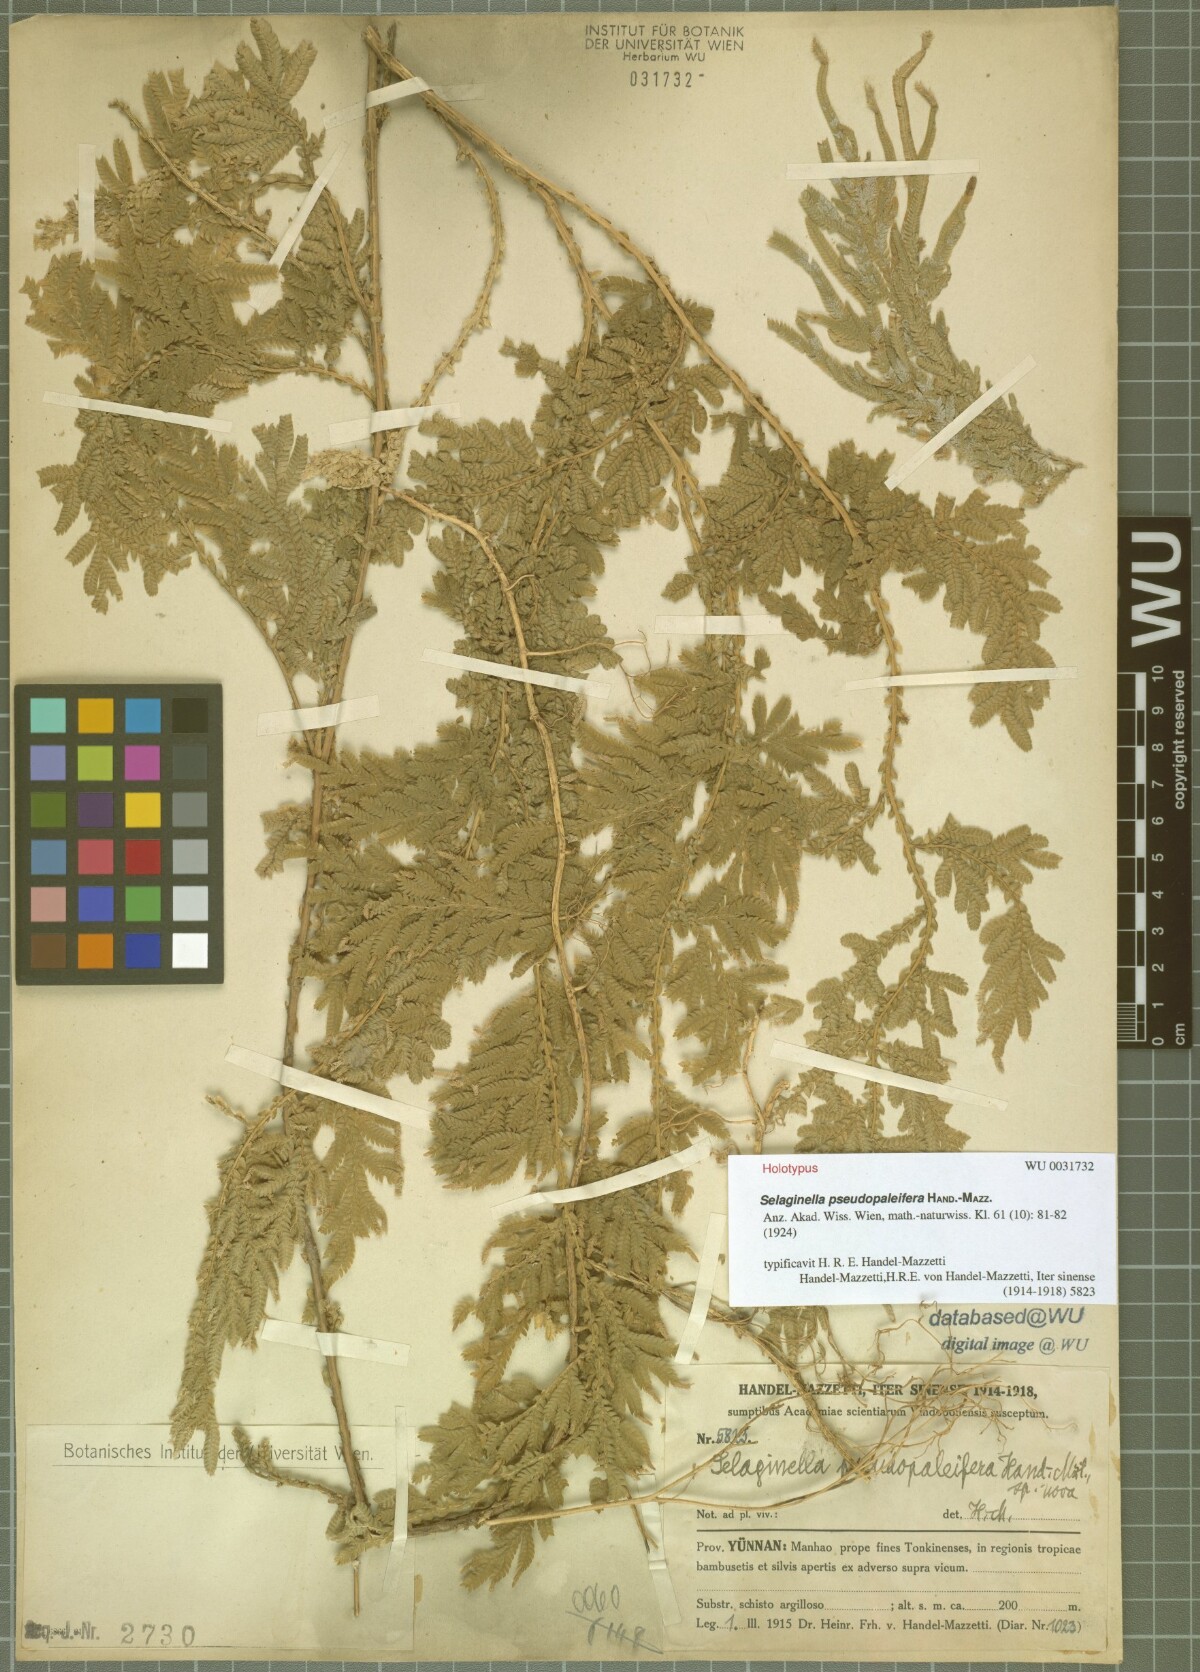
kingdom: Plantae
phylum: Tracheophyta
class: Lycopodiopsida
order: Selaginellales
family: Selaginellaceae
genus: Selaginella
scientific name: Selaginella pseudopaleifera
